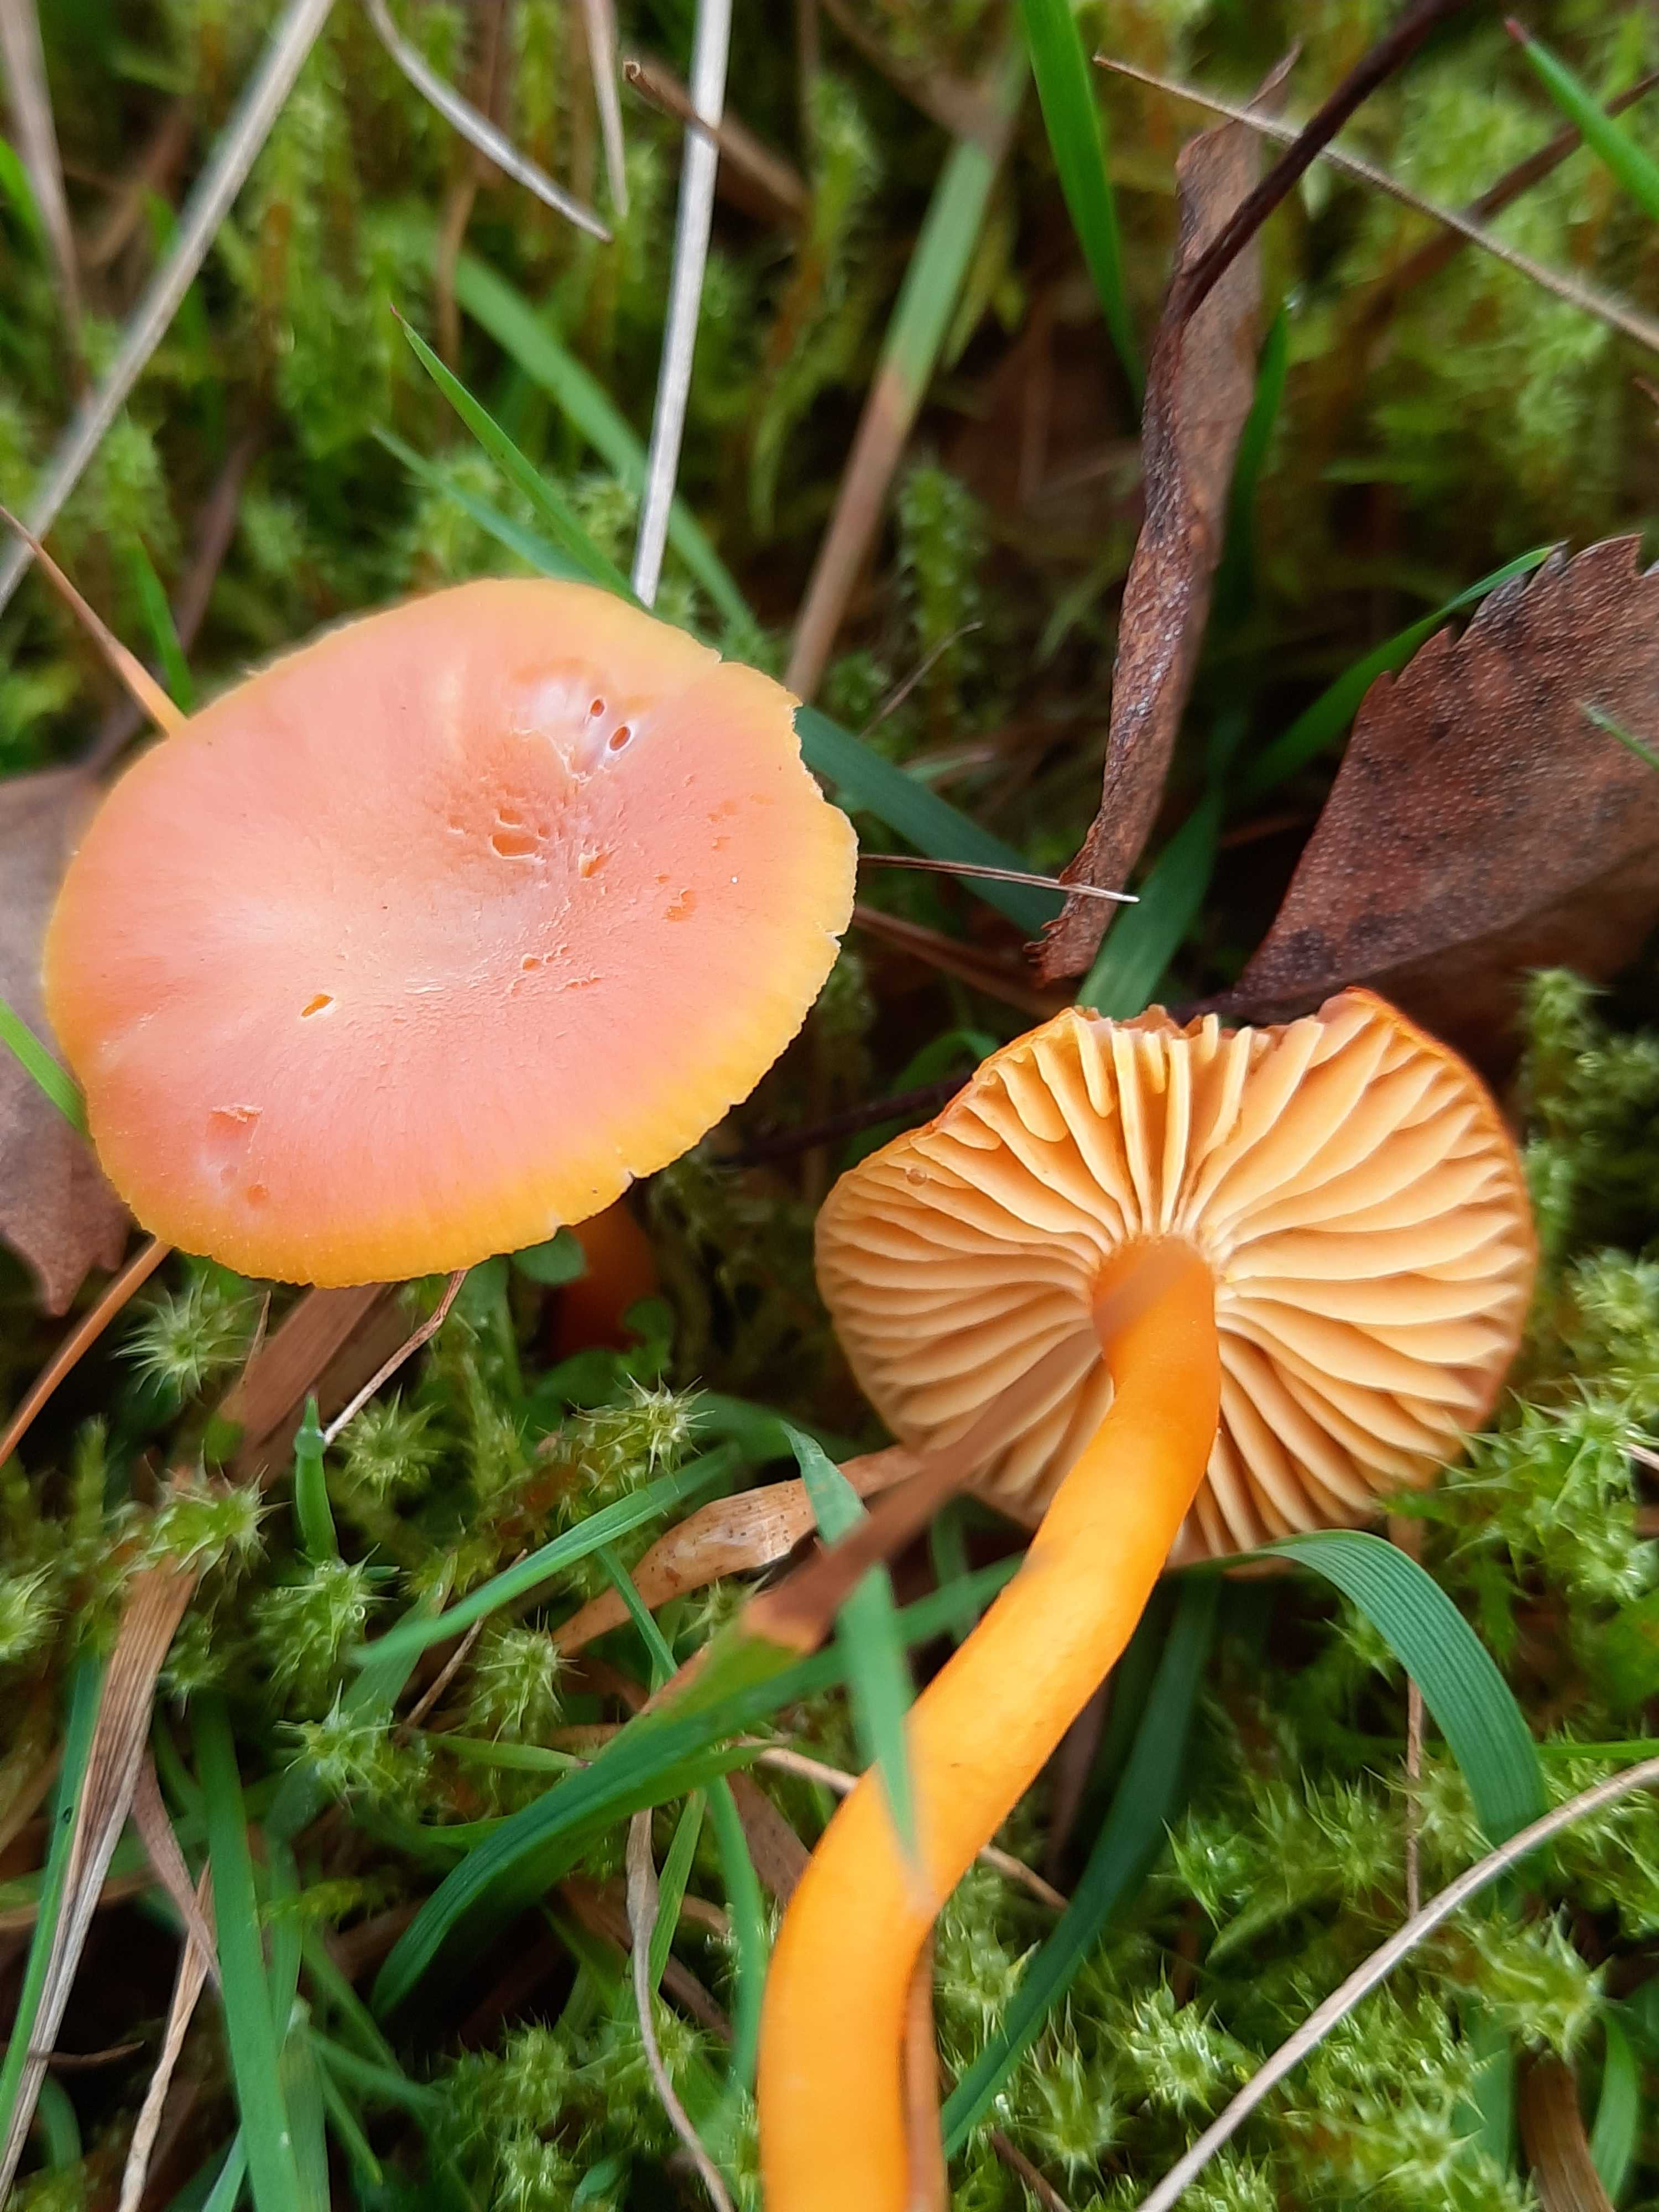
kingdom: Fungi
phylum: Basidiomycota
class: Agaricomycetes
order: Agaricales
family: Hygrophoraceae
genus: Hygrocybe
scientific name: Hygrocybe reidii
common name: honning-vokshat
